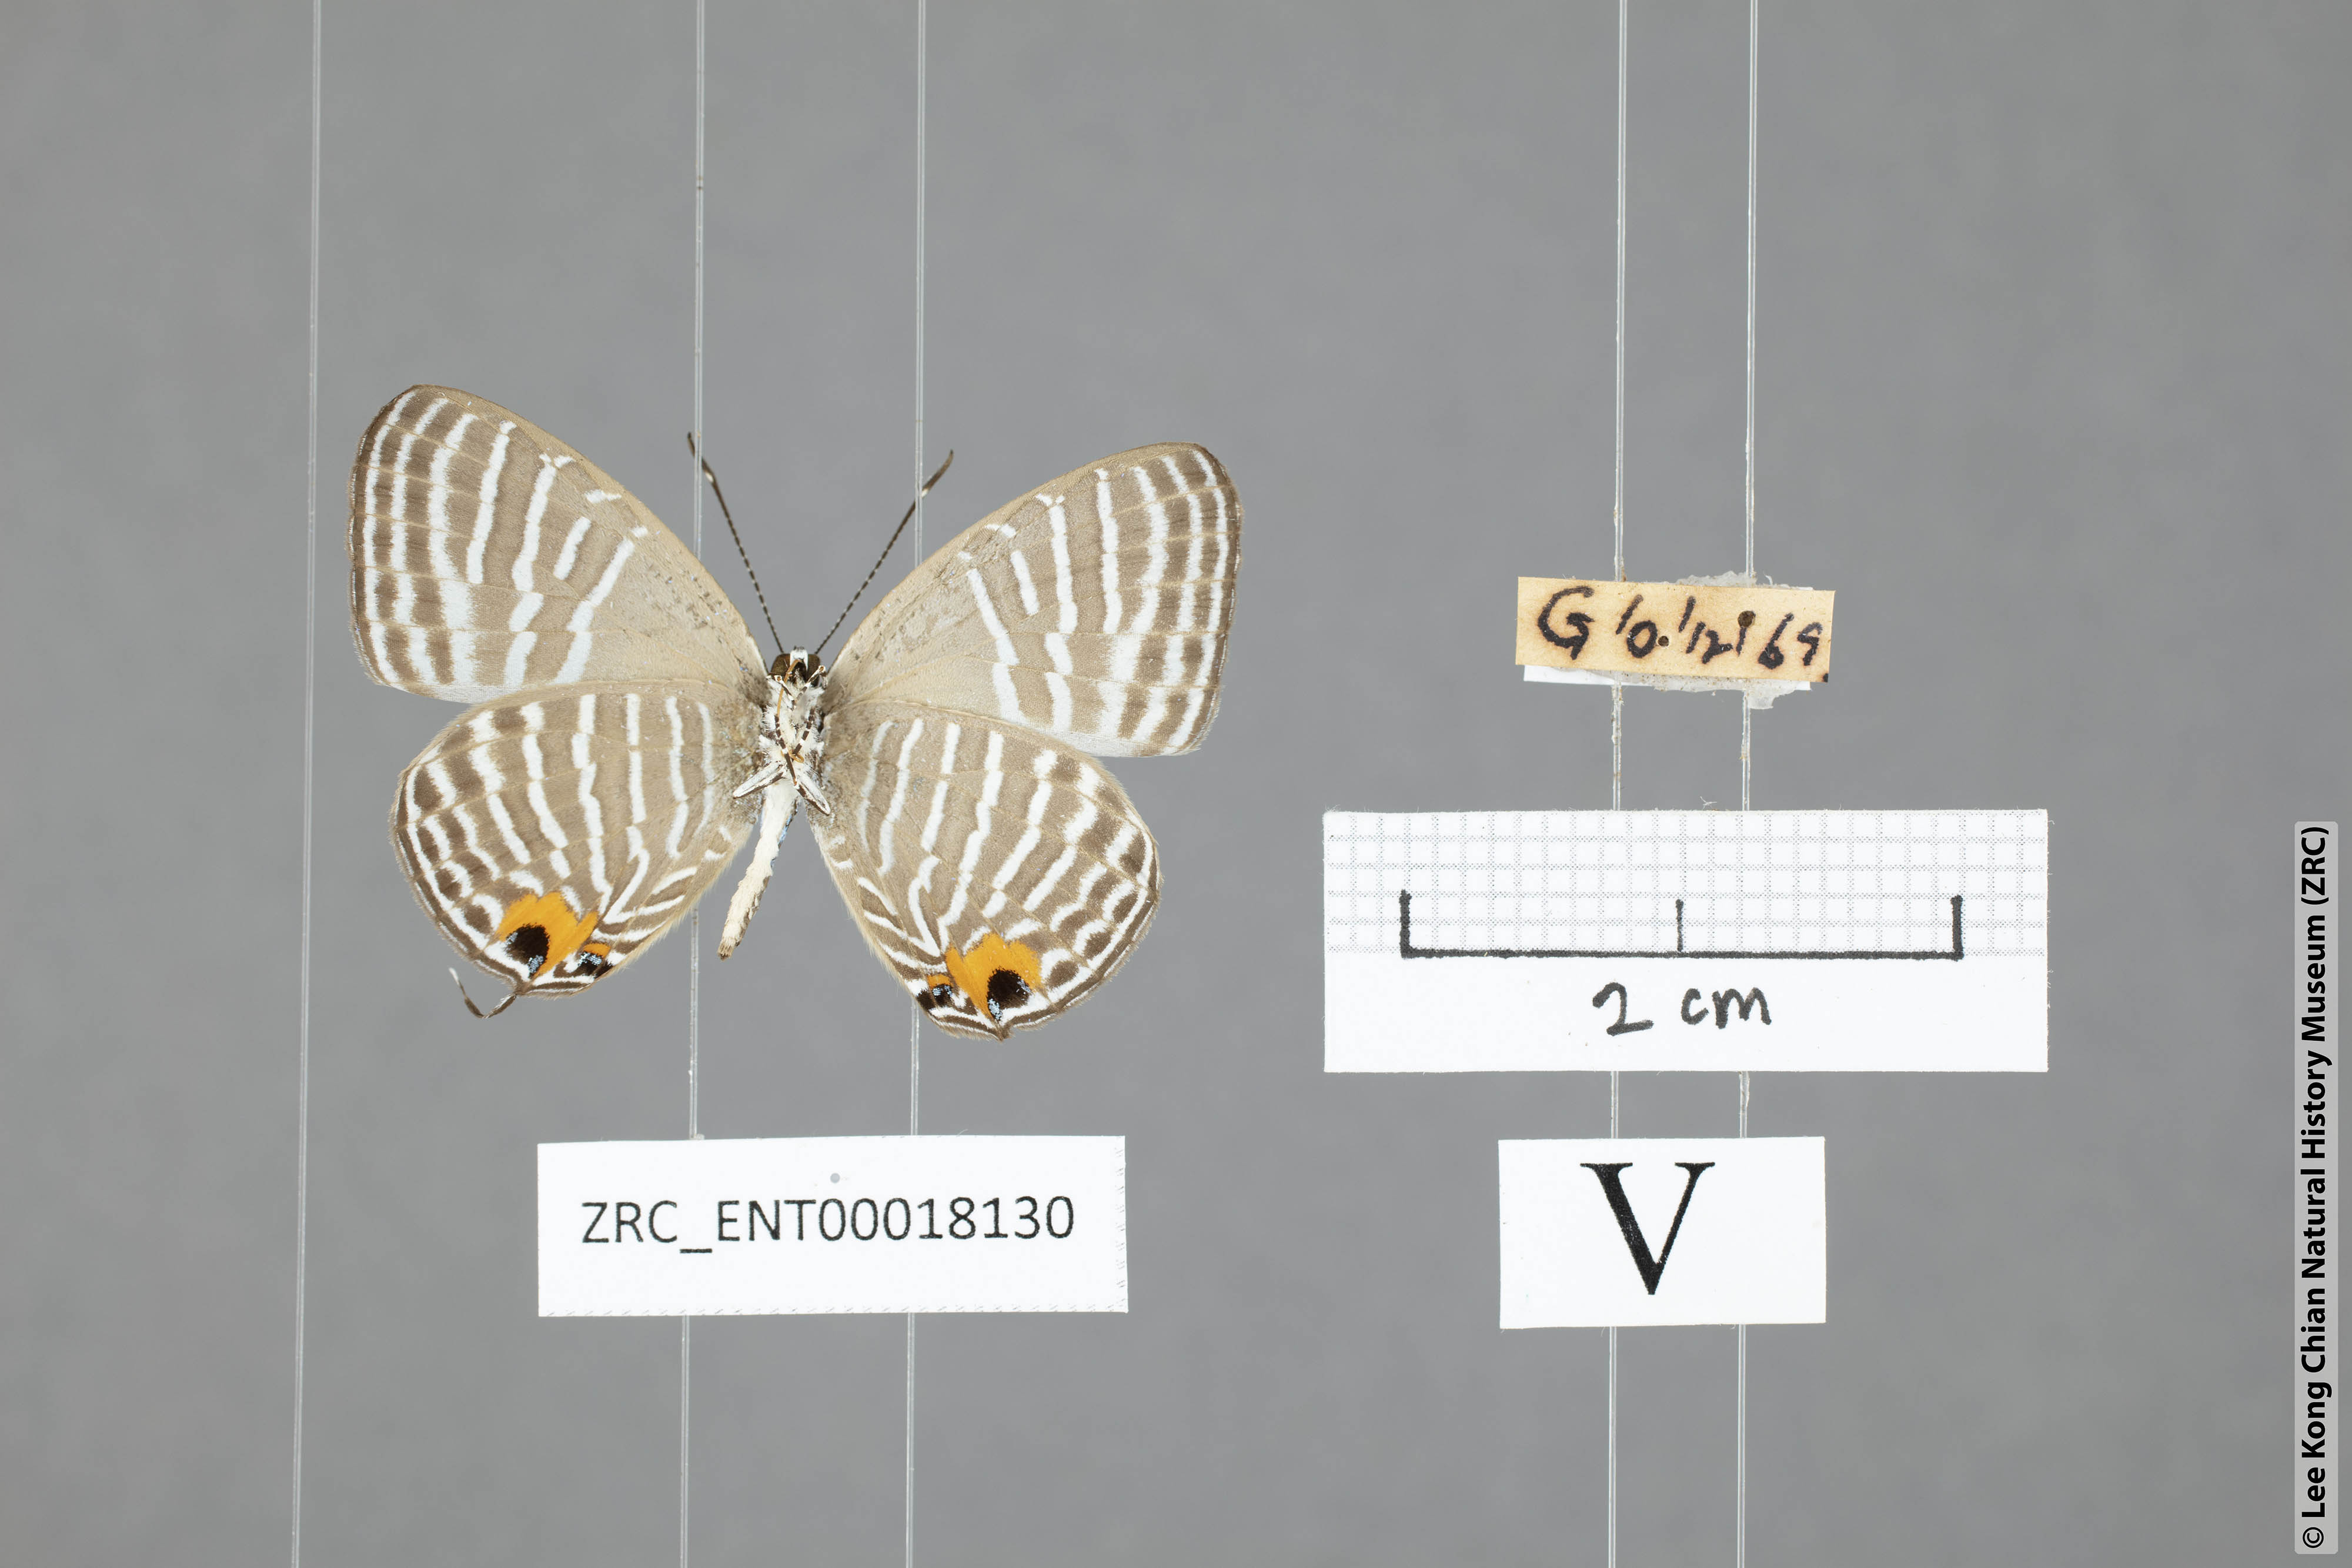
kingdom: Animalia
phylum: Arthropoda
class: Insecta
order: Lepidoptera
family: Lycaenidae
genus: Jamides
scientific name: Jamides malaccanus
